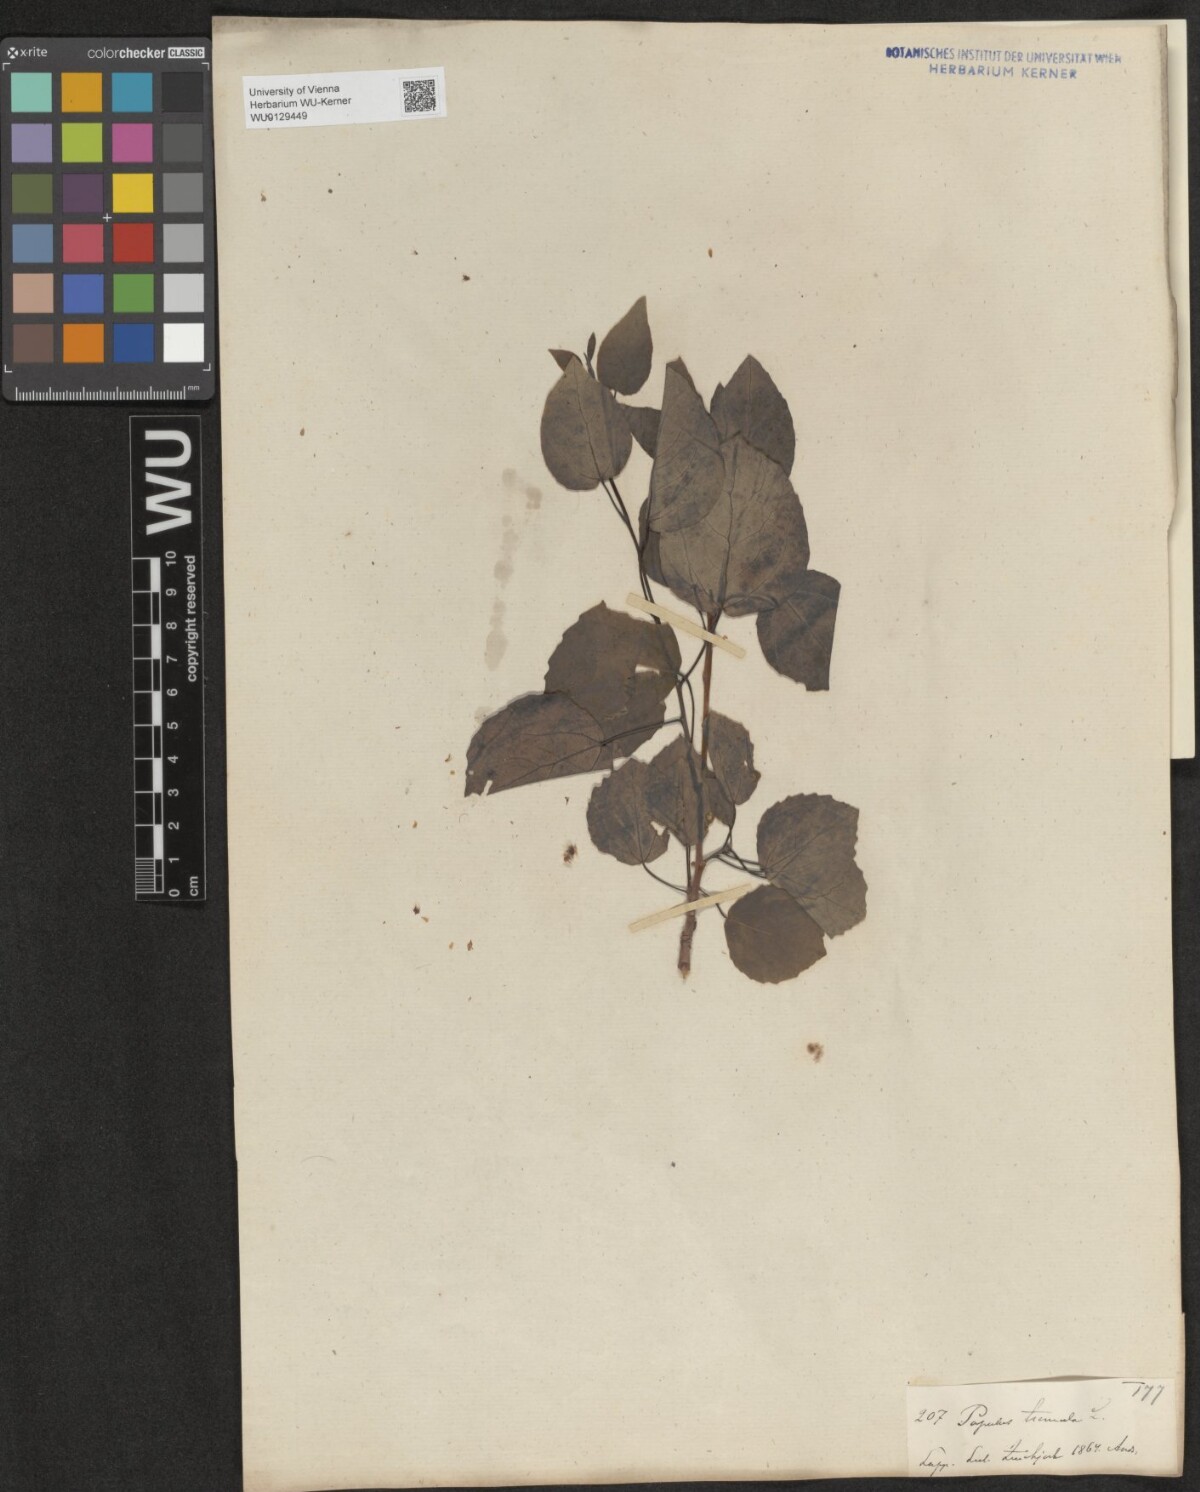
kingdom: Plantae
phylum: Tracheophyta
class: Magnoliopsida
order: Malpighiales
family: Salicaceae
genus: Populus
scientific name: Populus tremula
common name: European aspen
